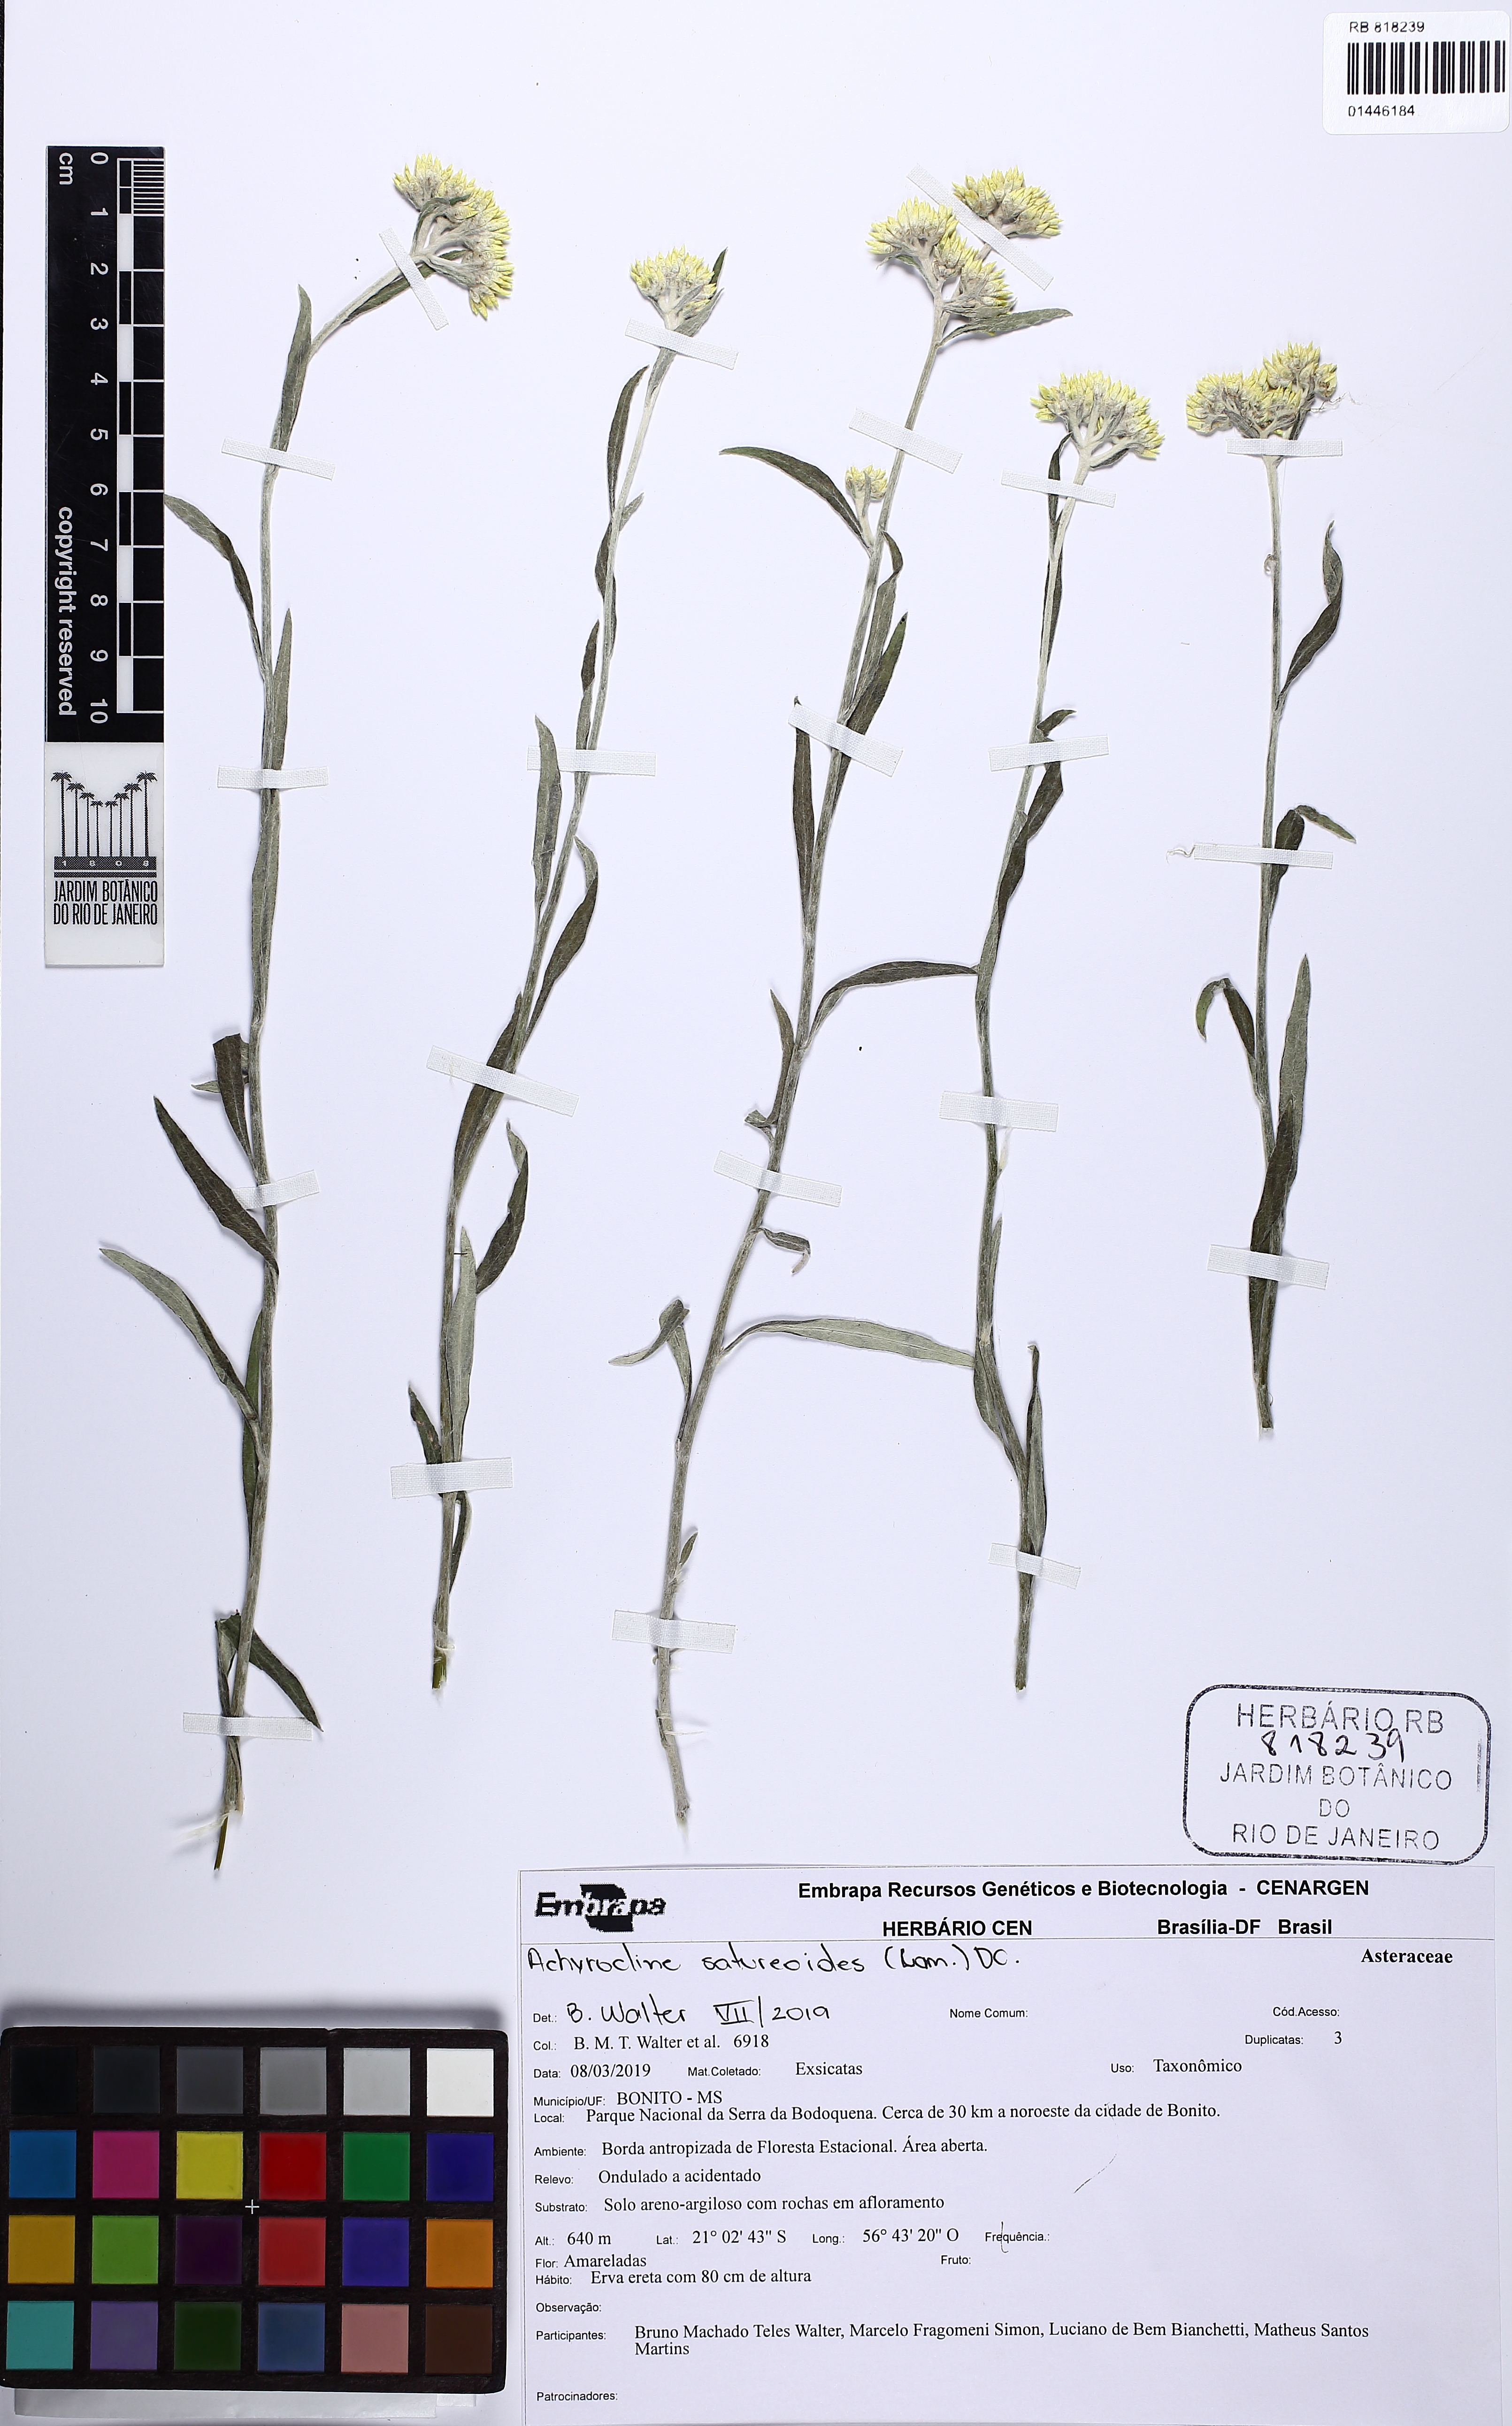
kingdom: Plantae
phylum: Tracheophyta
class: Magnoliopsida
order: Asterales
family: Asteraceae
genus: Achyrocline
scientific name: Achyrocline satureioides
